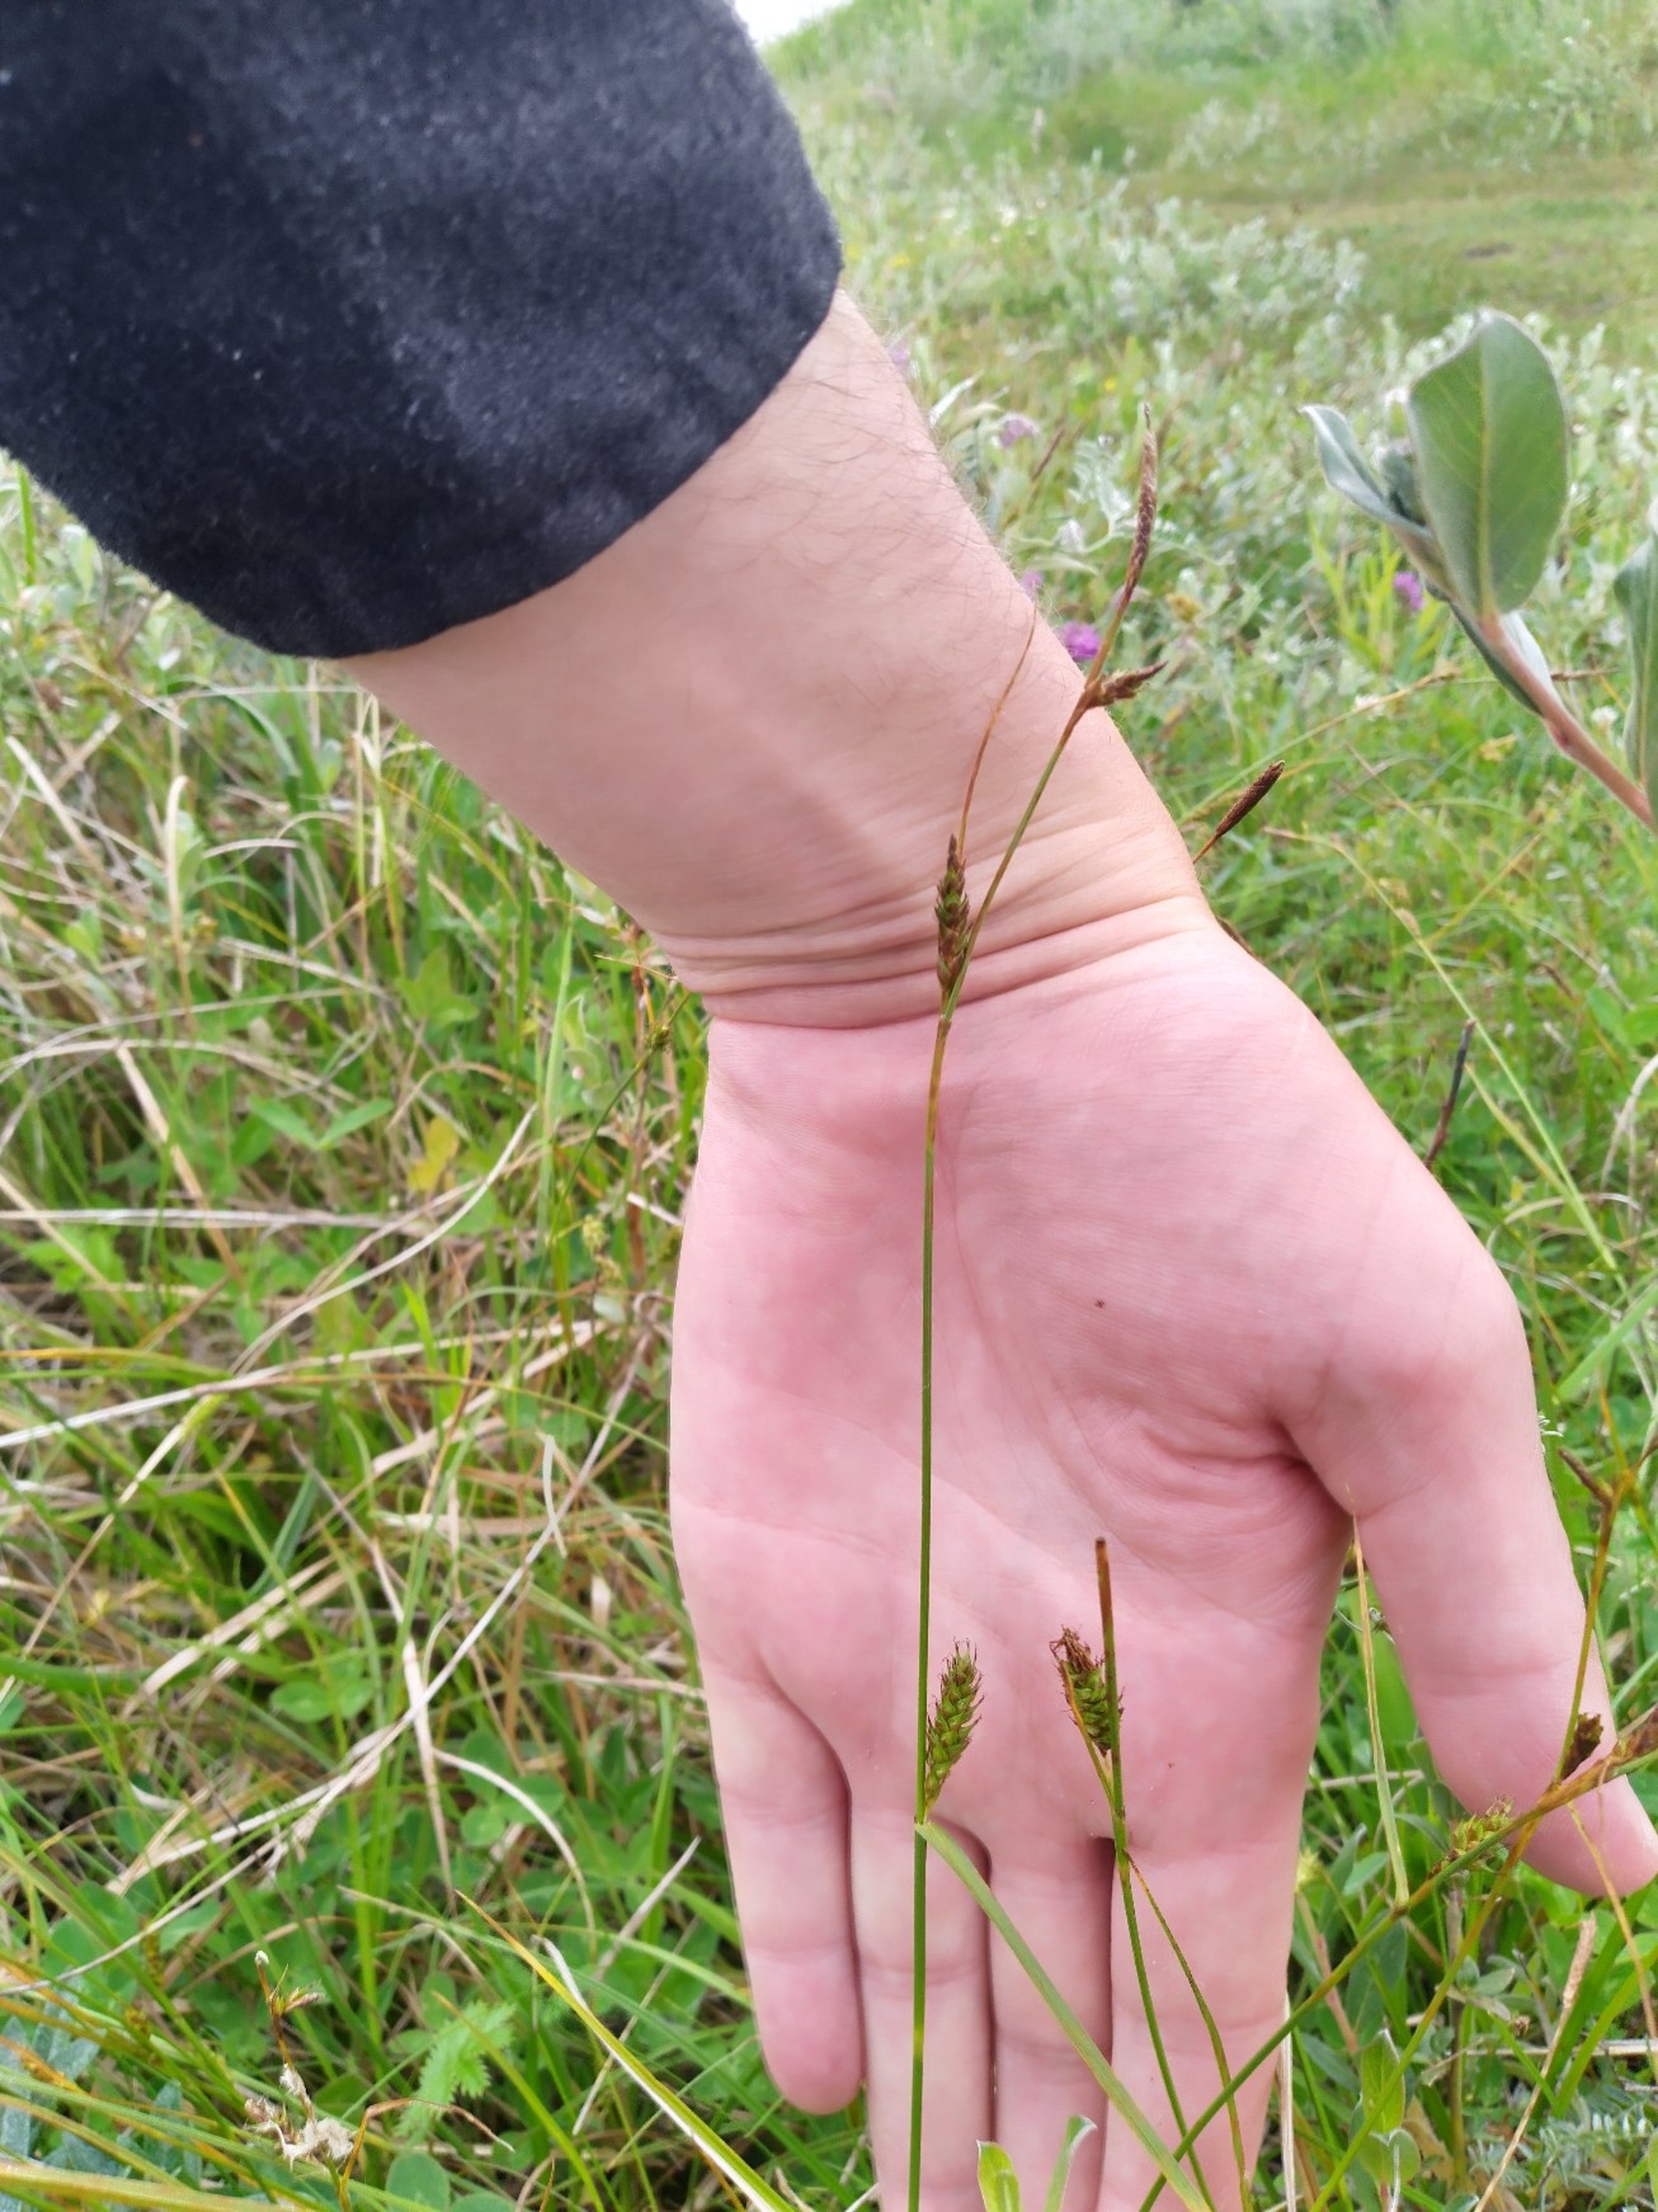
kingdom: Plantae
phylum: Tracheophyta
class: Liliopsida
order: Poales
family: Cyperaceae
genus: Carex
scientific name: Carex distans
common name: Fjernakset star
